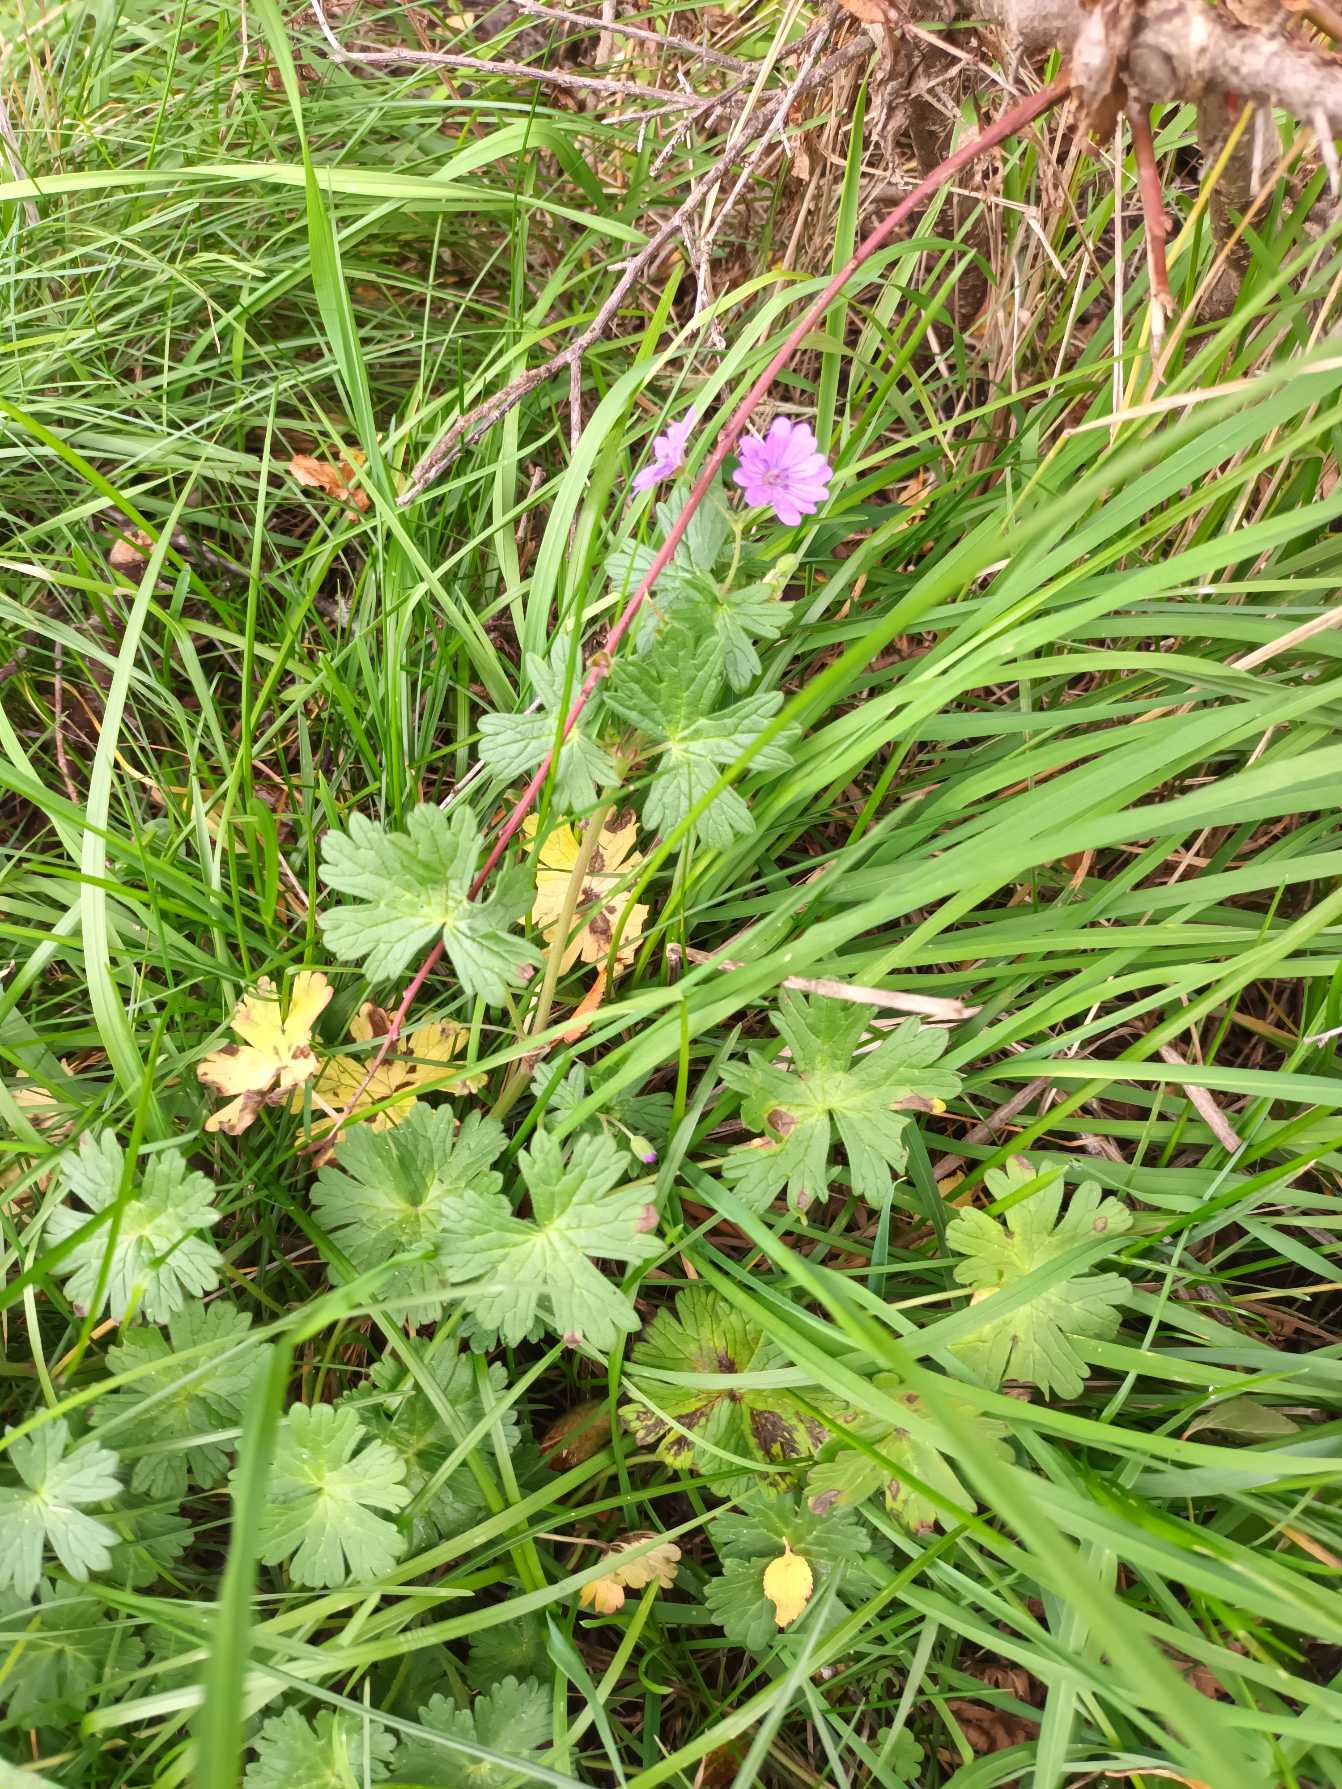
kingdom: Plantae
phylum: Tracheophyta
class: Magnoliopsida
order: Geraniales
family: Geraniaceae
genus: Geranium
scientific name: Geranium pyrenaicum
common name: Pyrenæisk storkenæb
